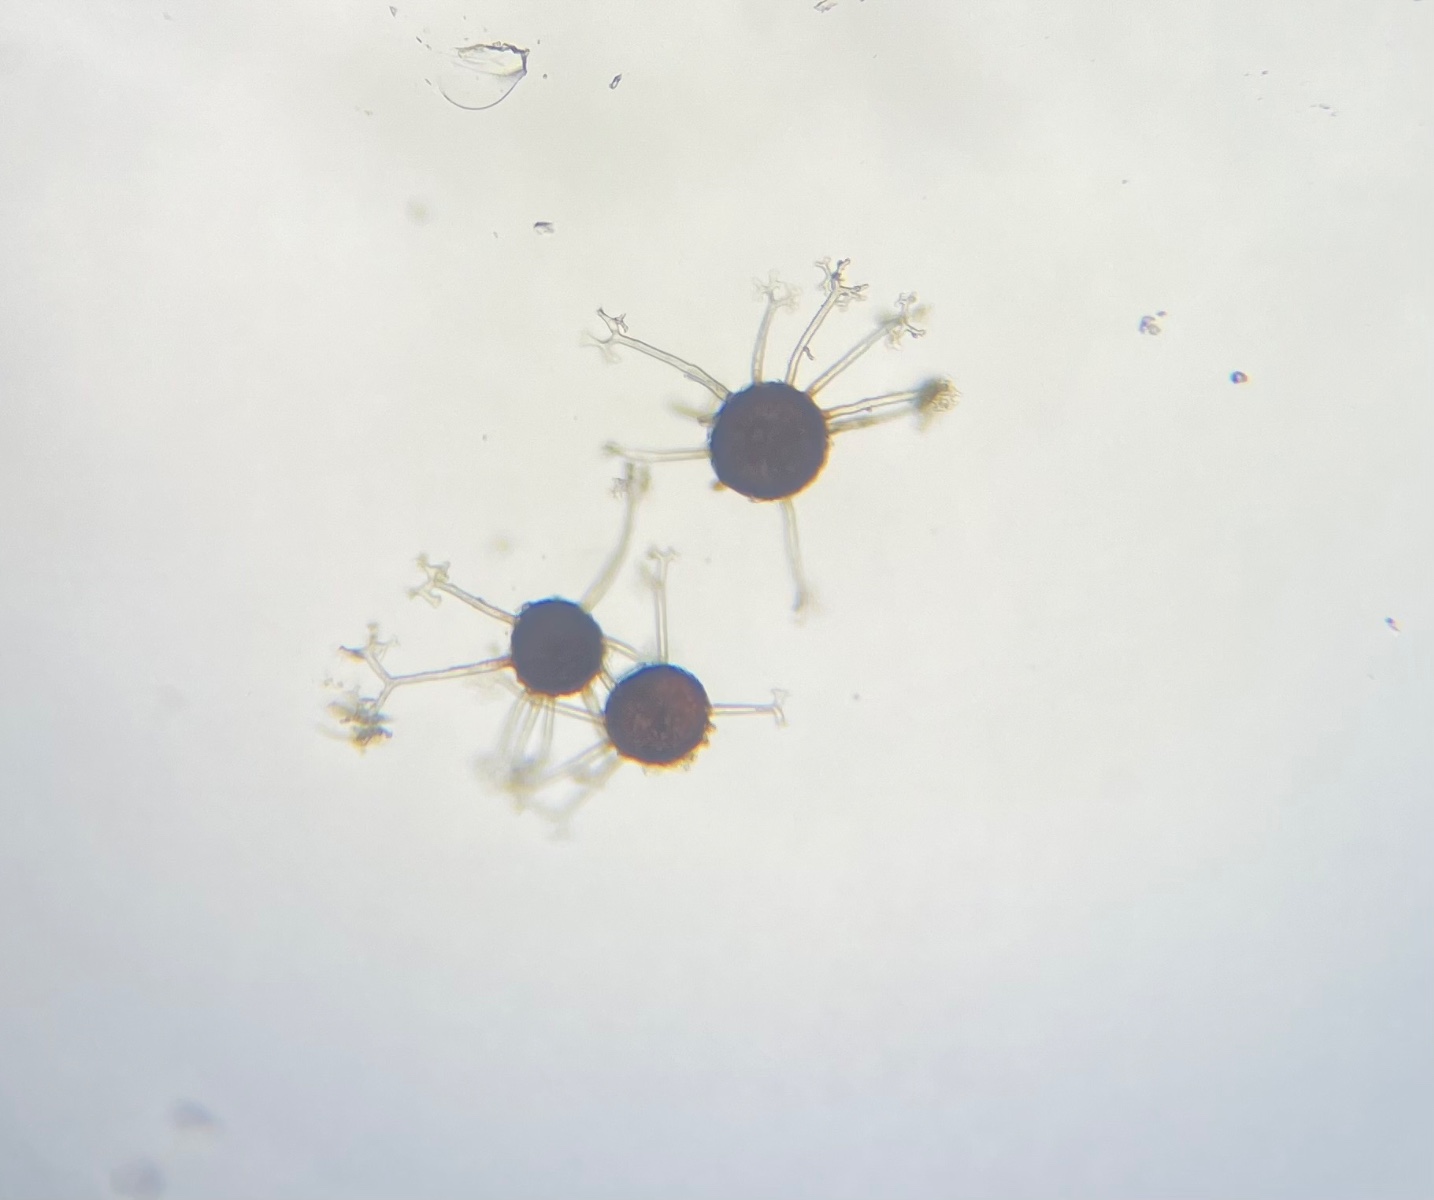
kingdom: Fungi
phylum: Ascomycota
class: Leotiomycetes
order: Helotiales
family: Erysiphaceae
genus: Erysiphe
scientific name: Erysiphe syringae-japonicae
